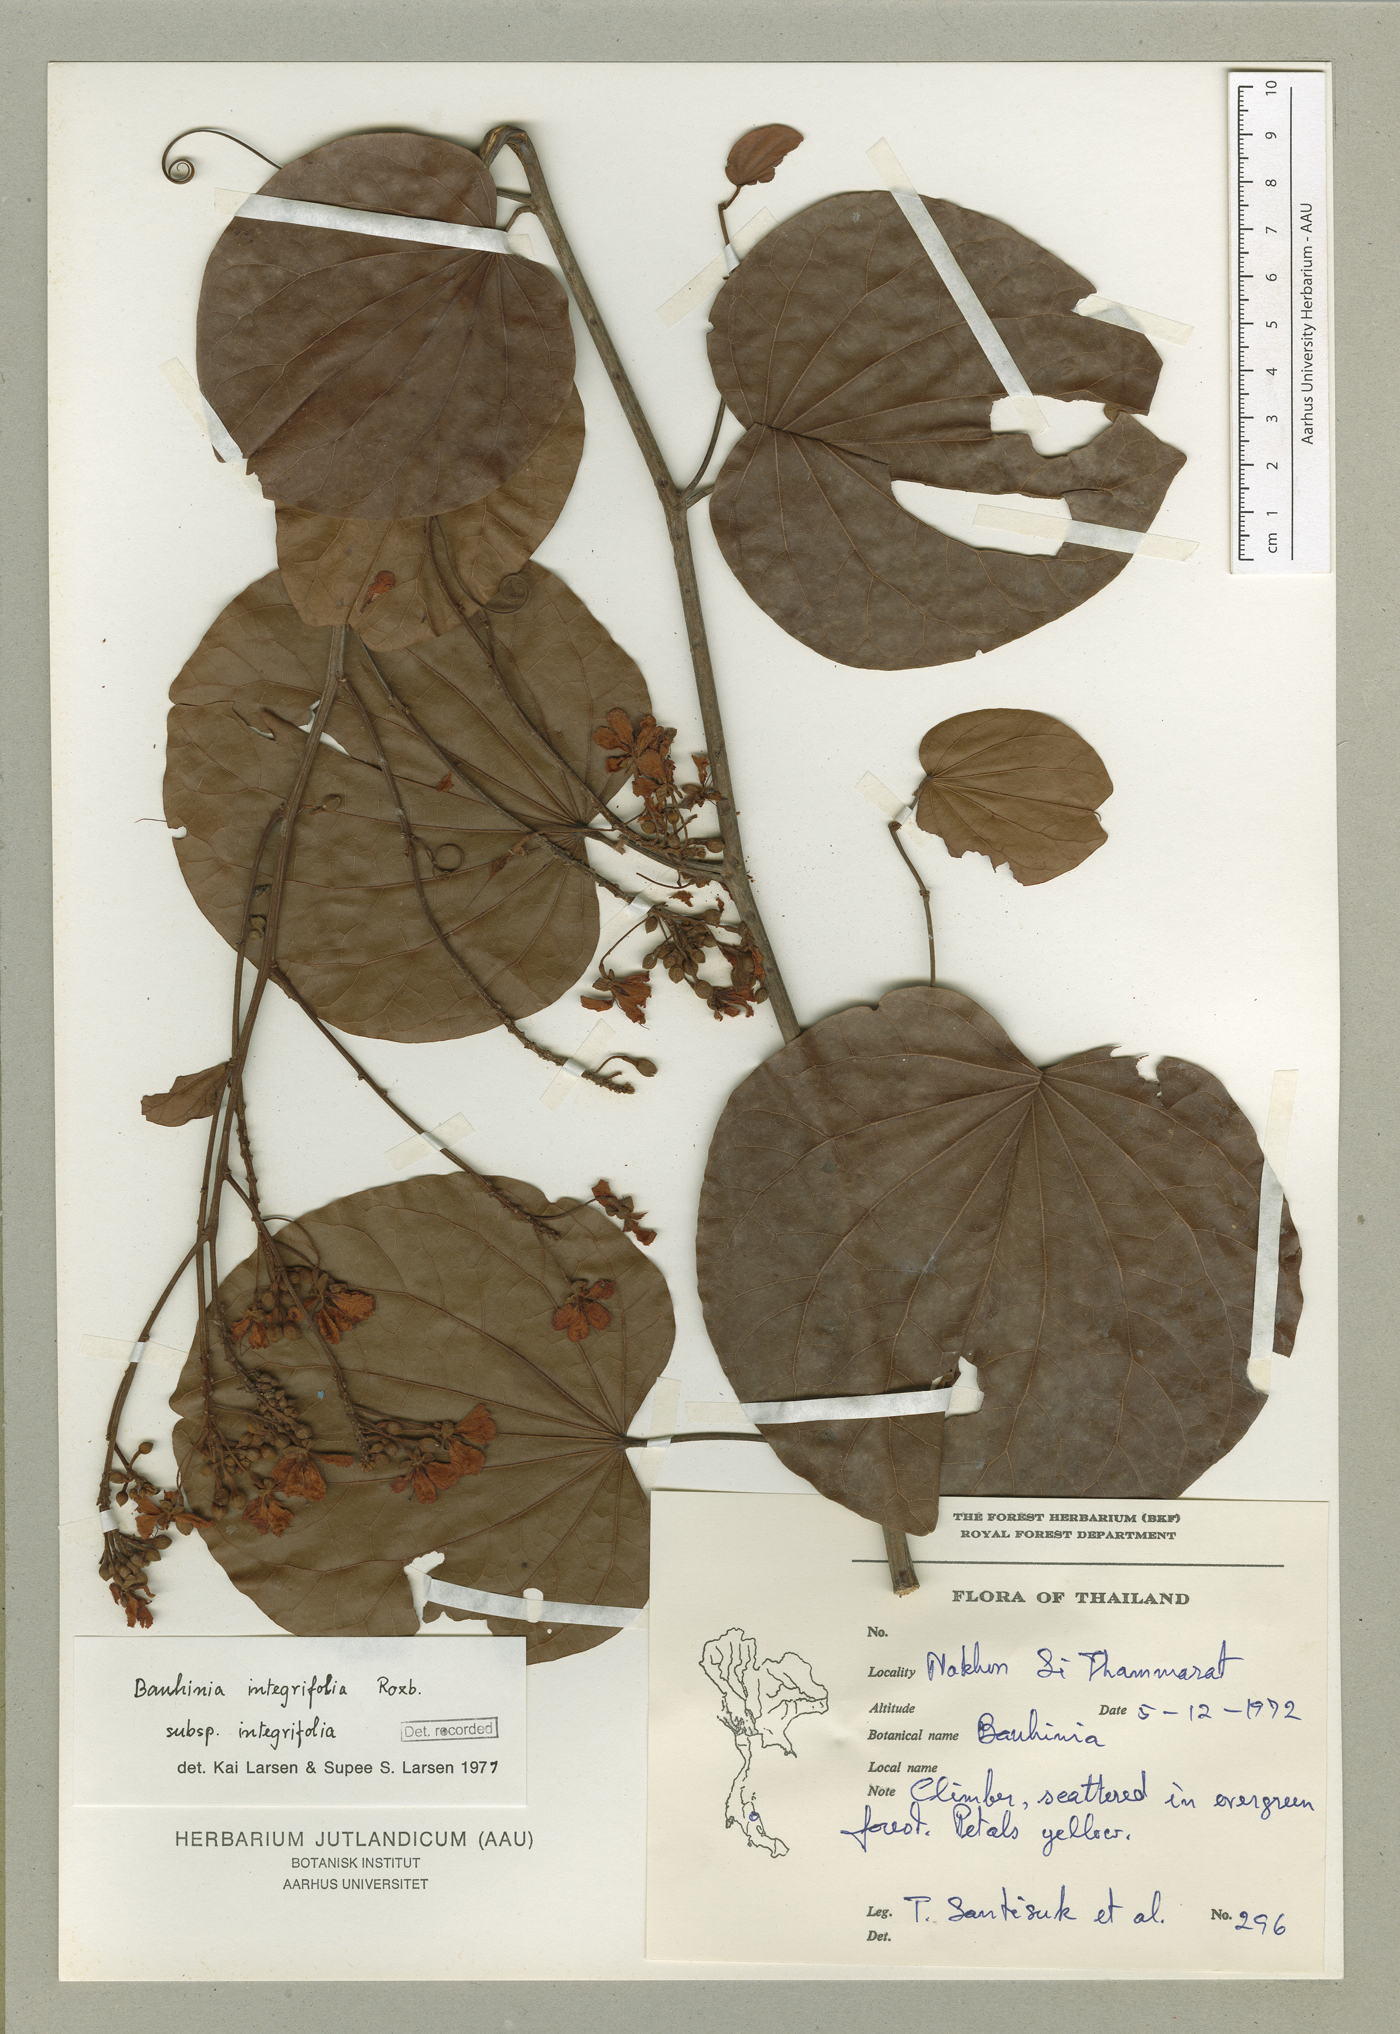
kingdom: Plantae
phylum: Tracheophyta
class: Magnoliopsida
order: Fabales
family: Fabaceae
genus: Phanera
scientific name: Phanera integrifolia
